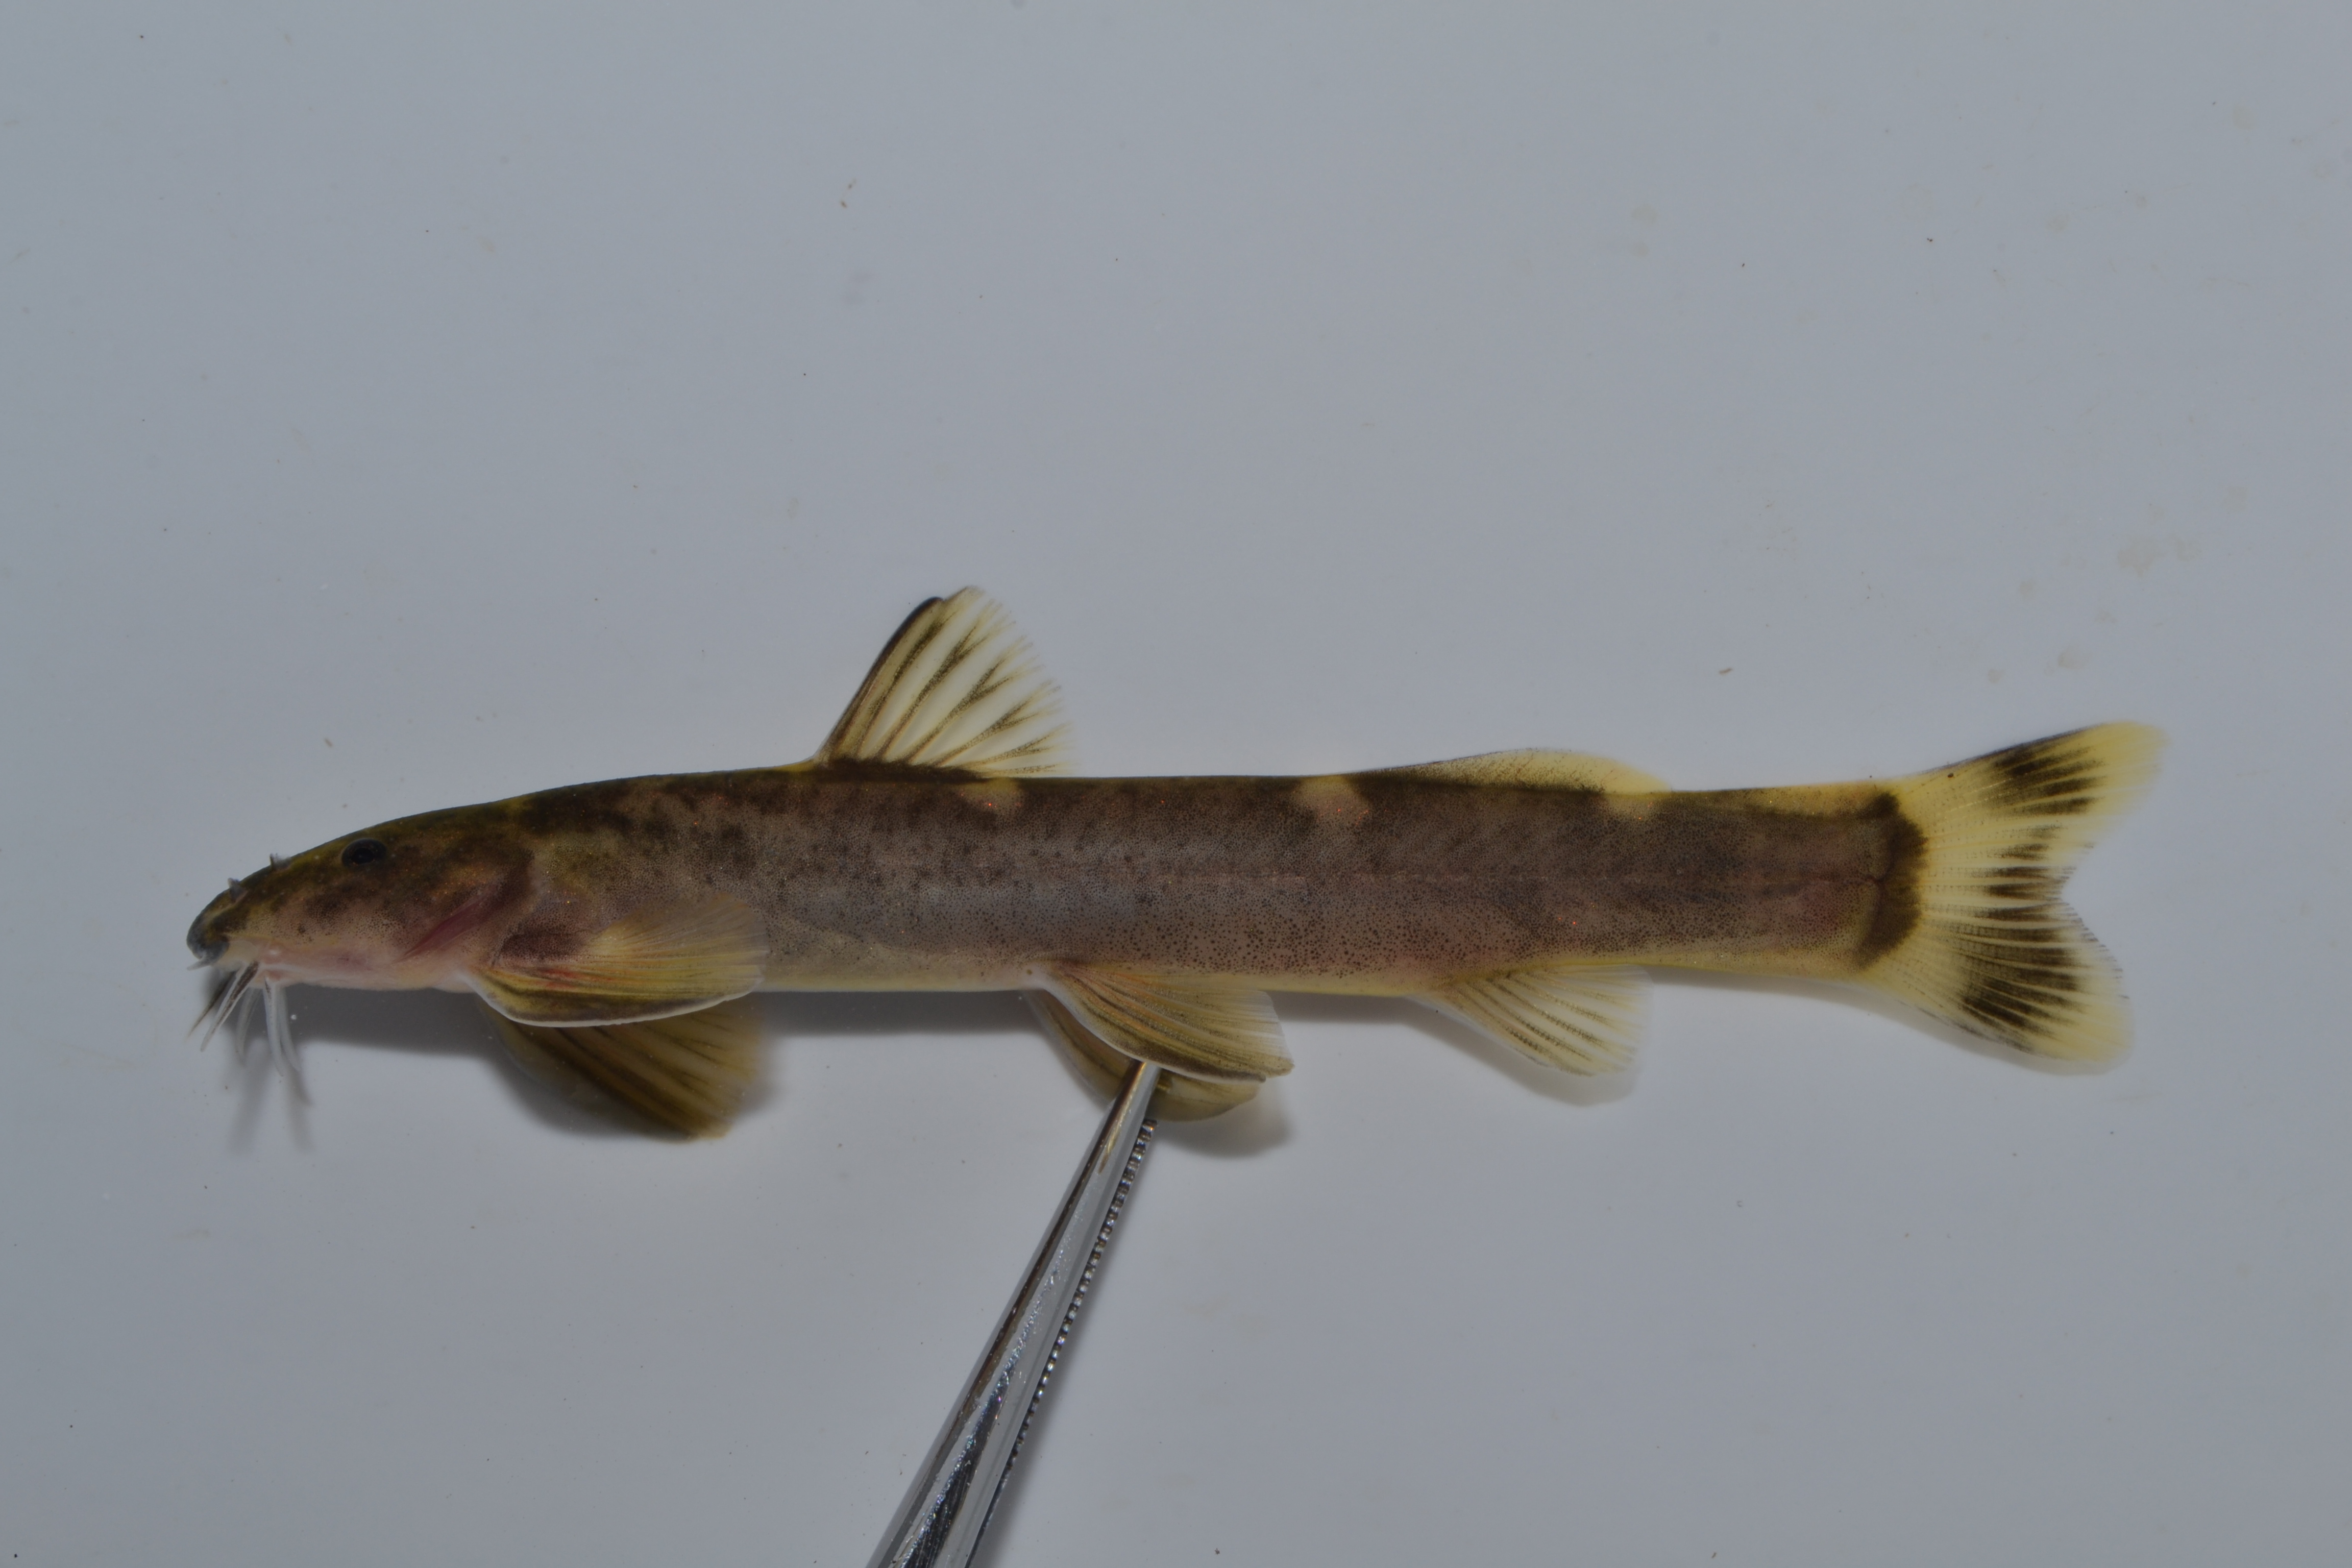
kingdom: Animalia
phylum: Chordata
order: Siluriformes
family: Amphiliidae
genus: Amphilius
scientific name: Amphilius engelbrechti
